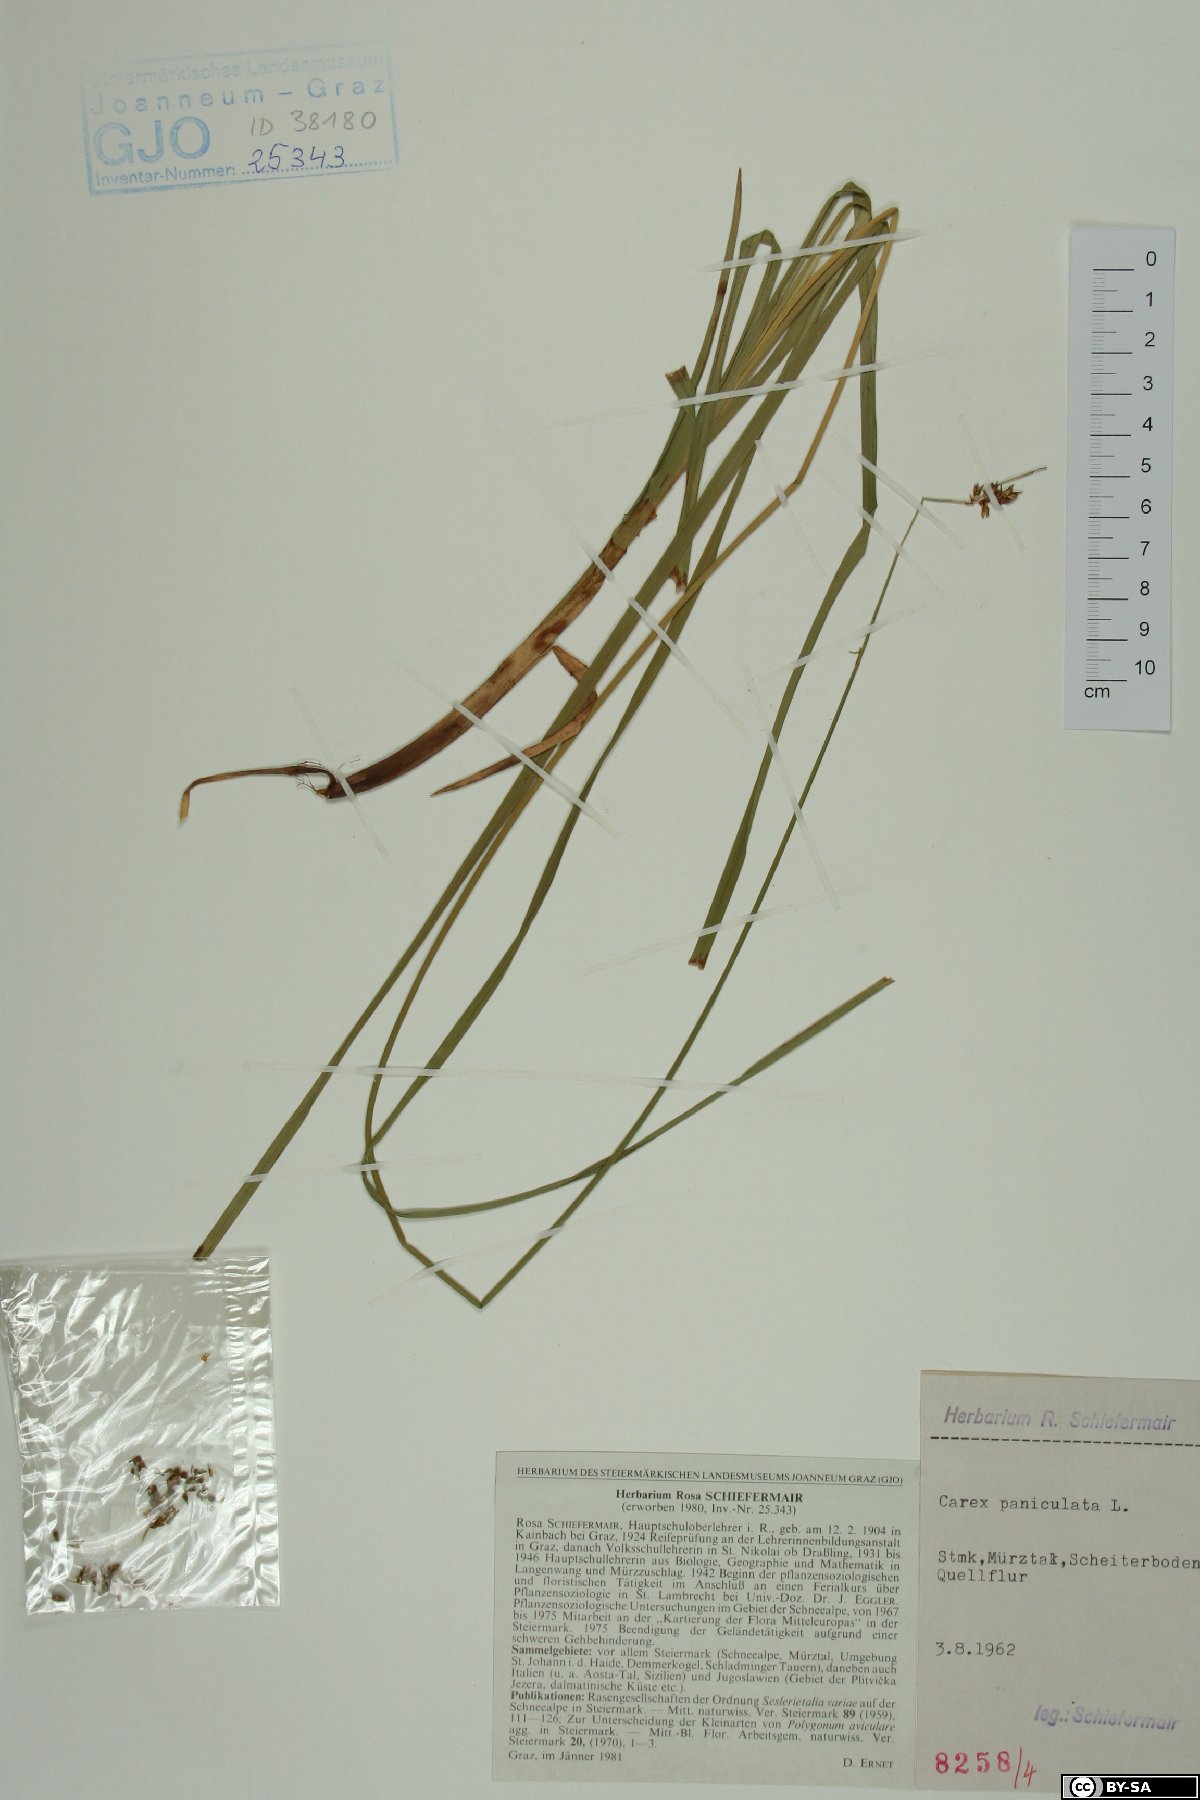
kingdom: Plantae
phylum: Tracheophyta
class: Liliopsida
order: Poales
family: Cyperaceae
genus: Carex
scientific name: Carex paniculata
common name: Greater tussock-sedge
